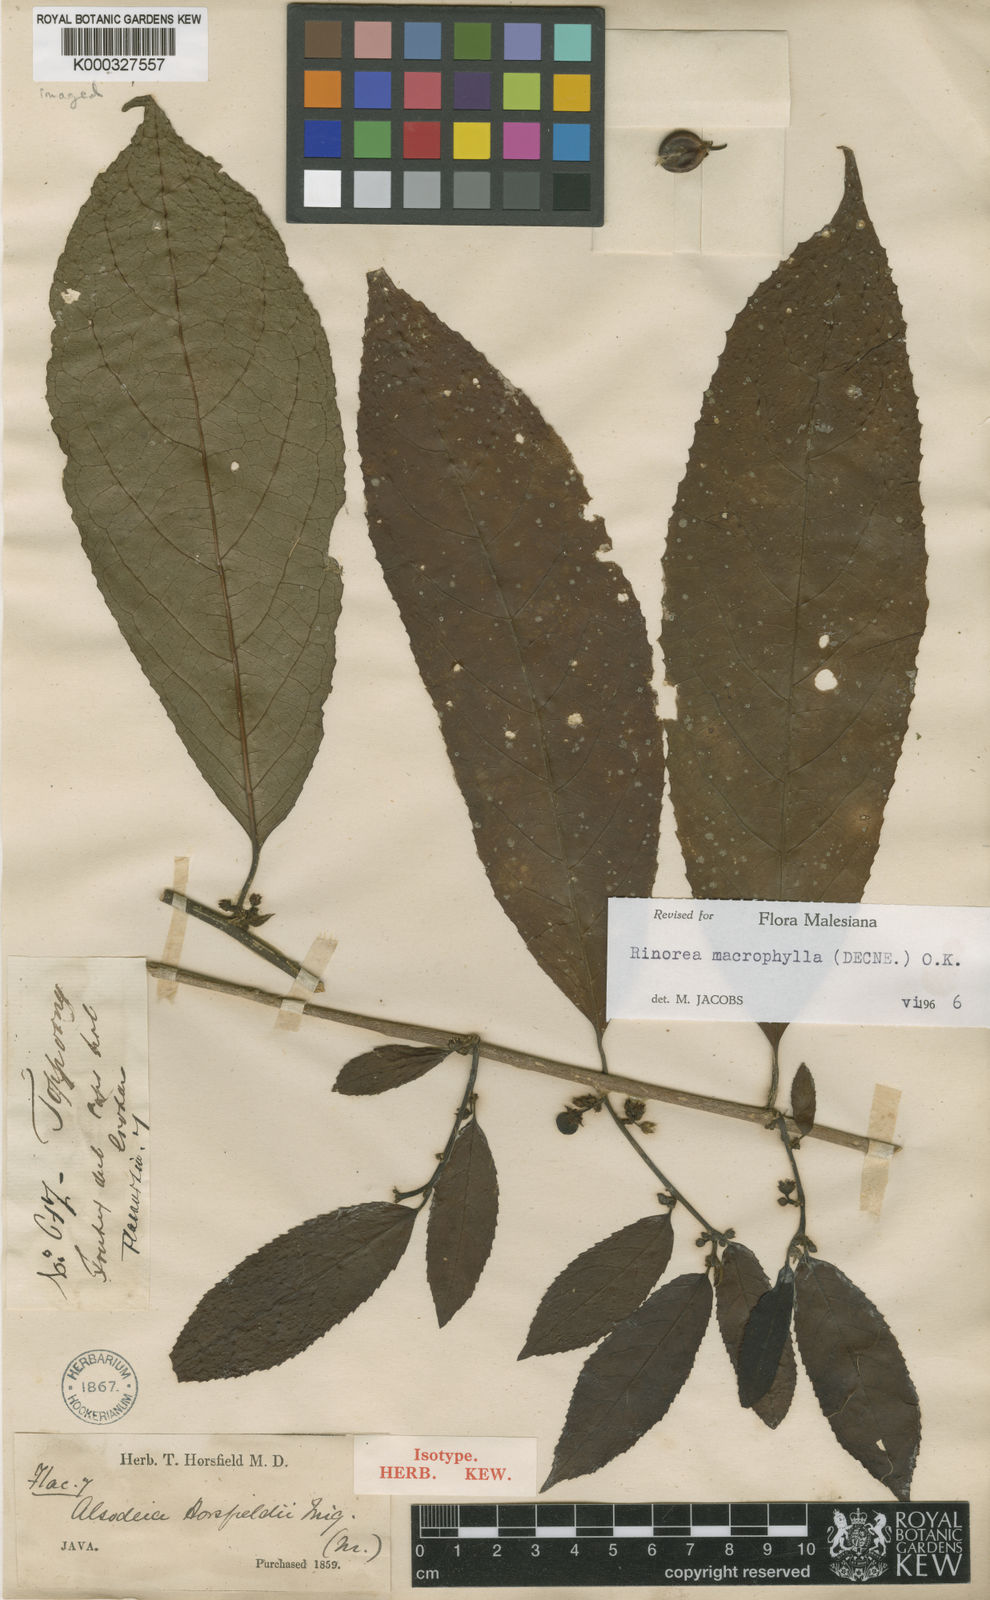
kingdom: Plantae
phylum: Tracheophyta
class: Magnoliopsida
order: Malpighiales
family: Violaceae
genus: Rinorea
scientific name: Rinorea macrophylla
